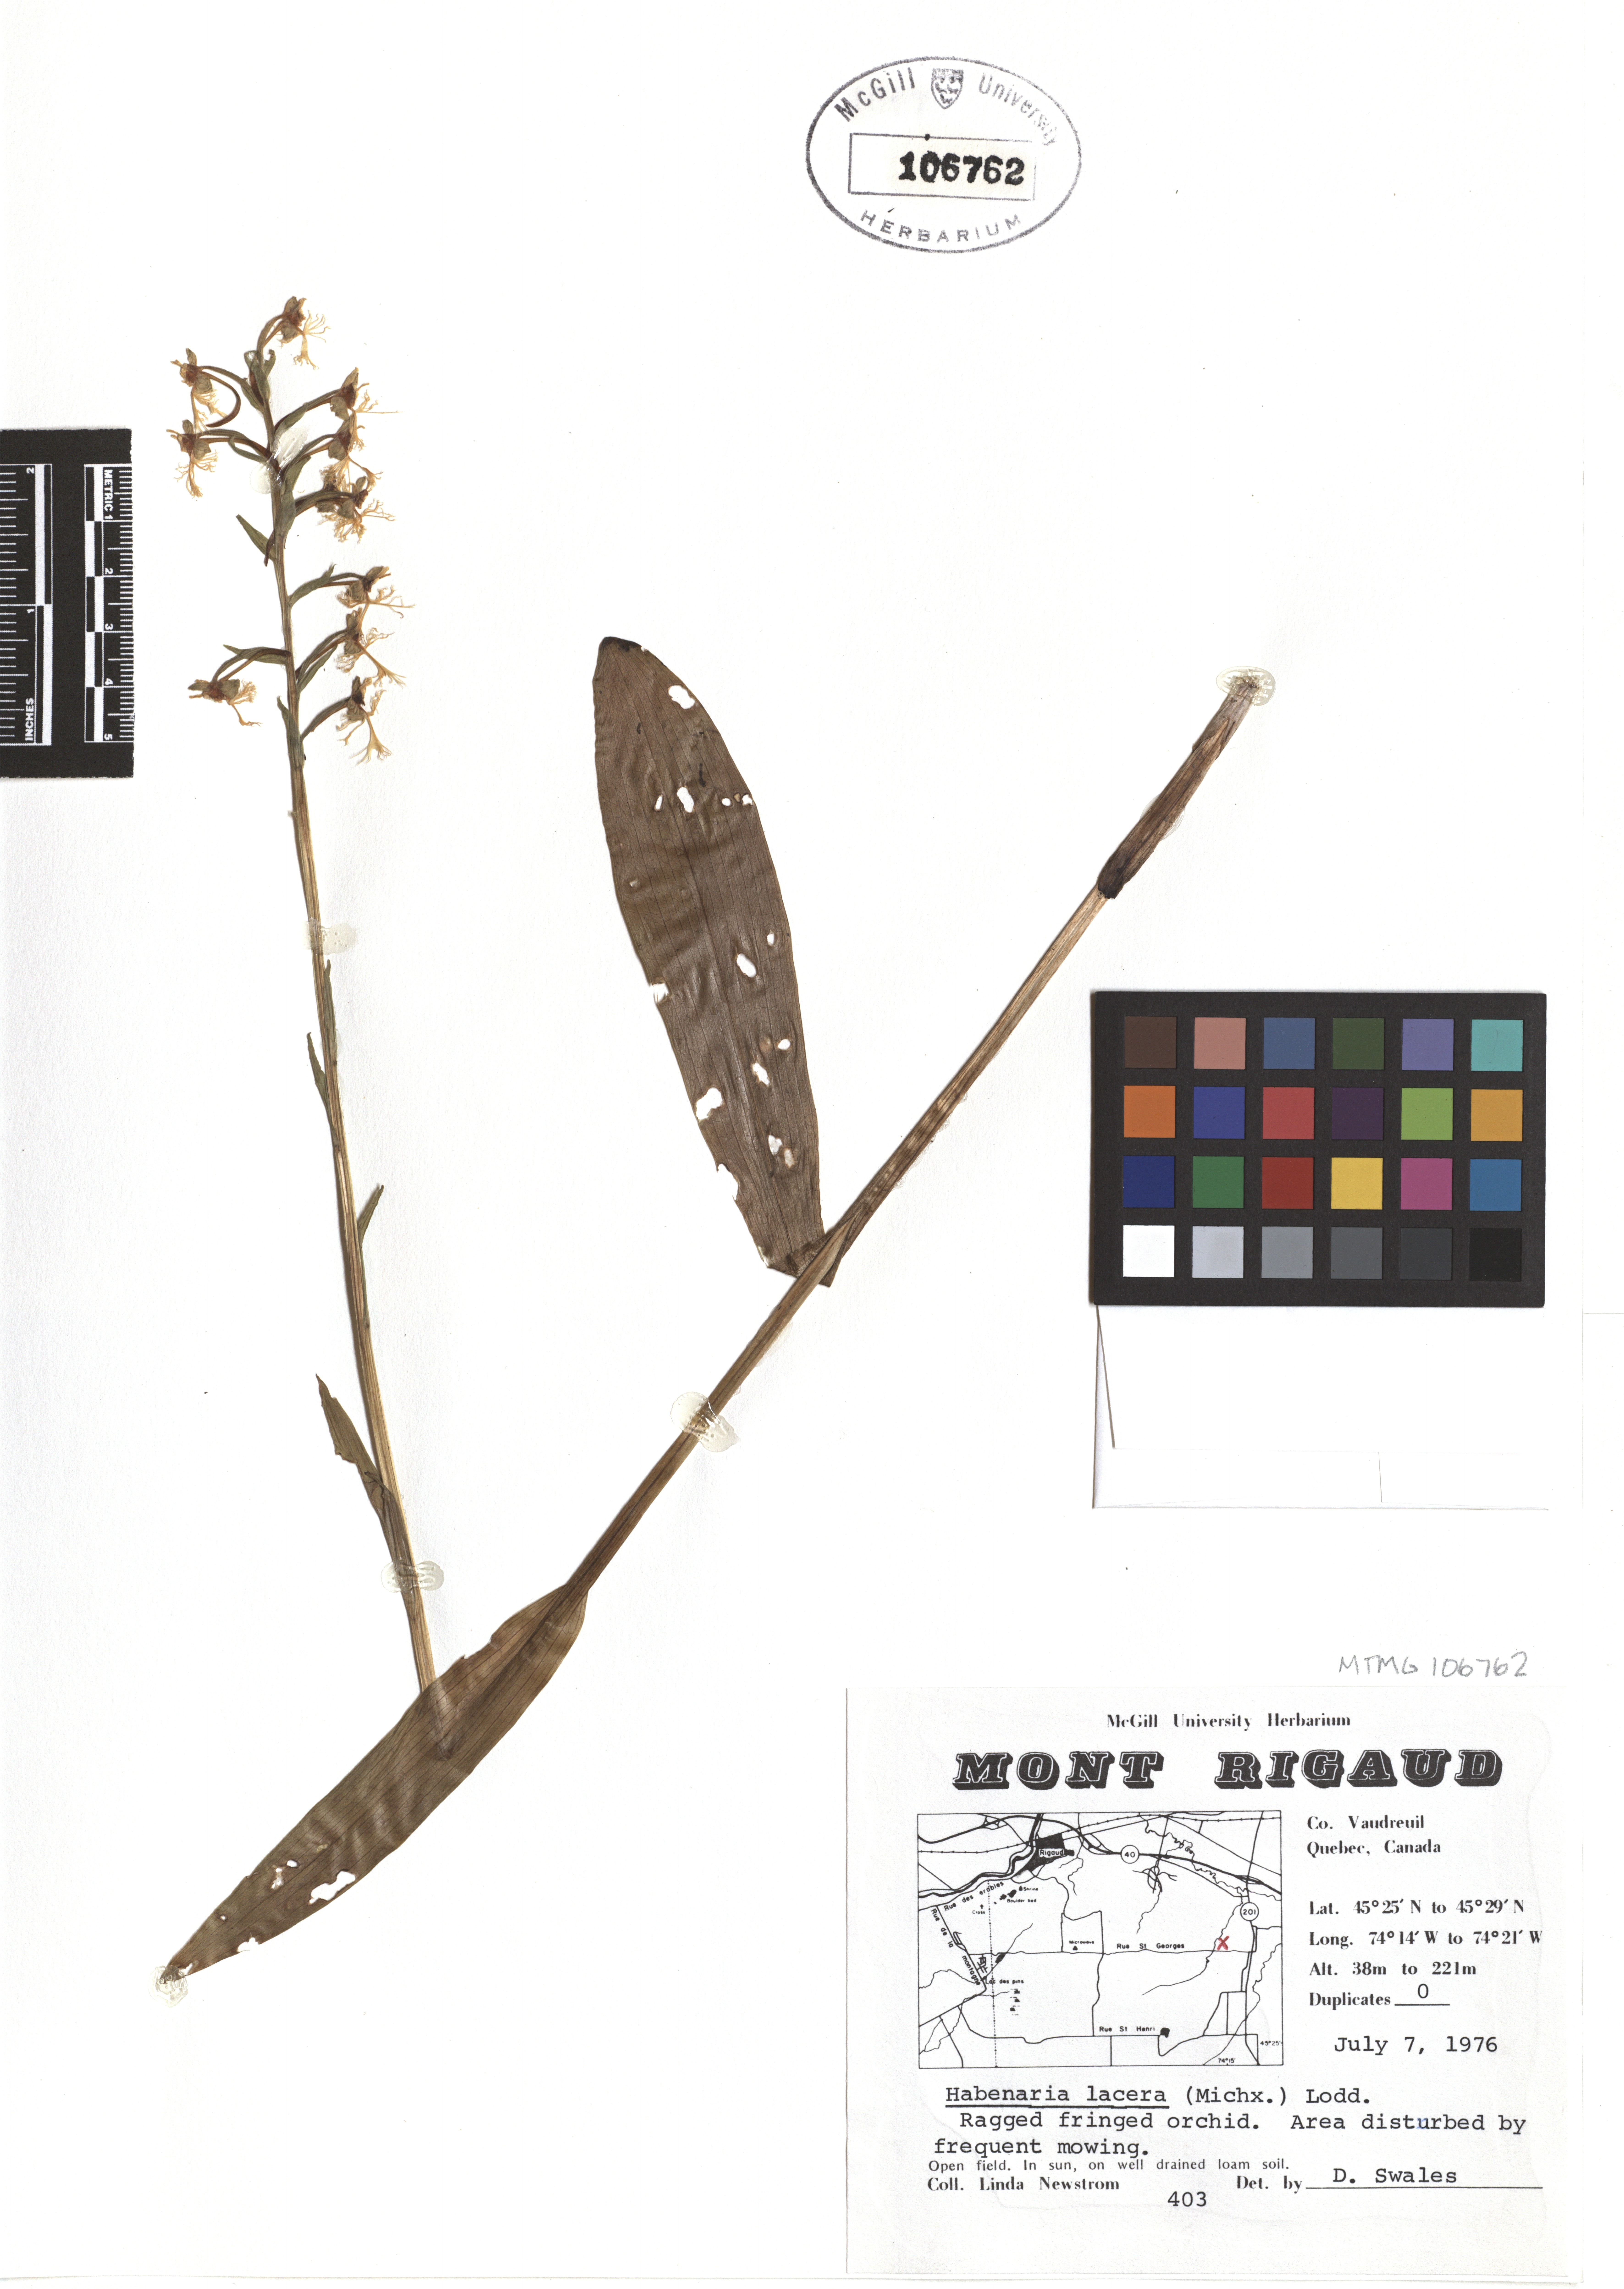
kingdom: Plantae
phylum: Tracheophyta
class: Liliopsida
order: Asparagales
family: Orchidaceae
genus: Platanthera
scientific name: Platanthera lacera
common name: Green fringed orchid
